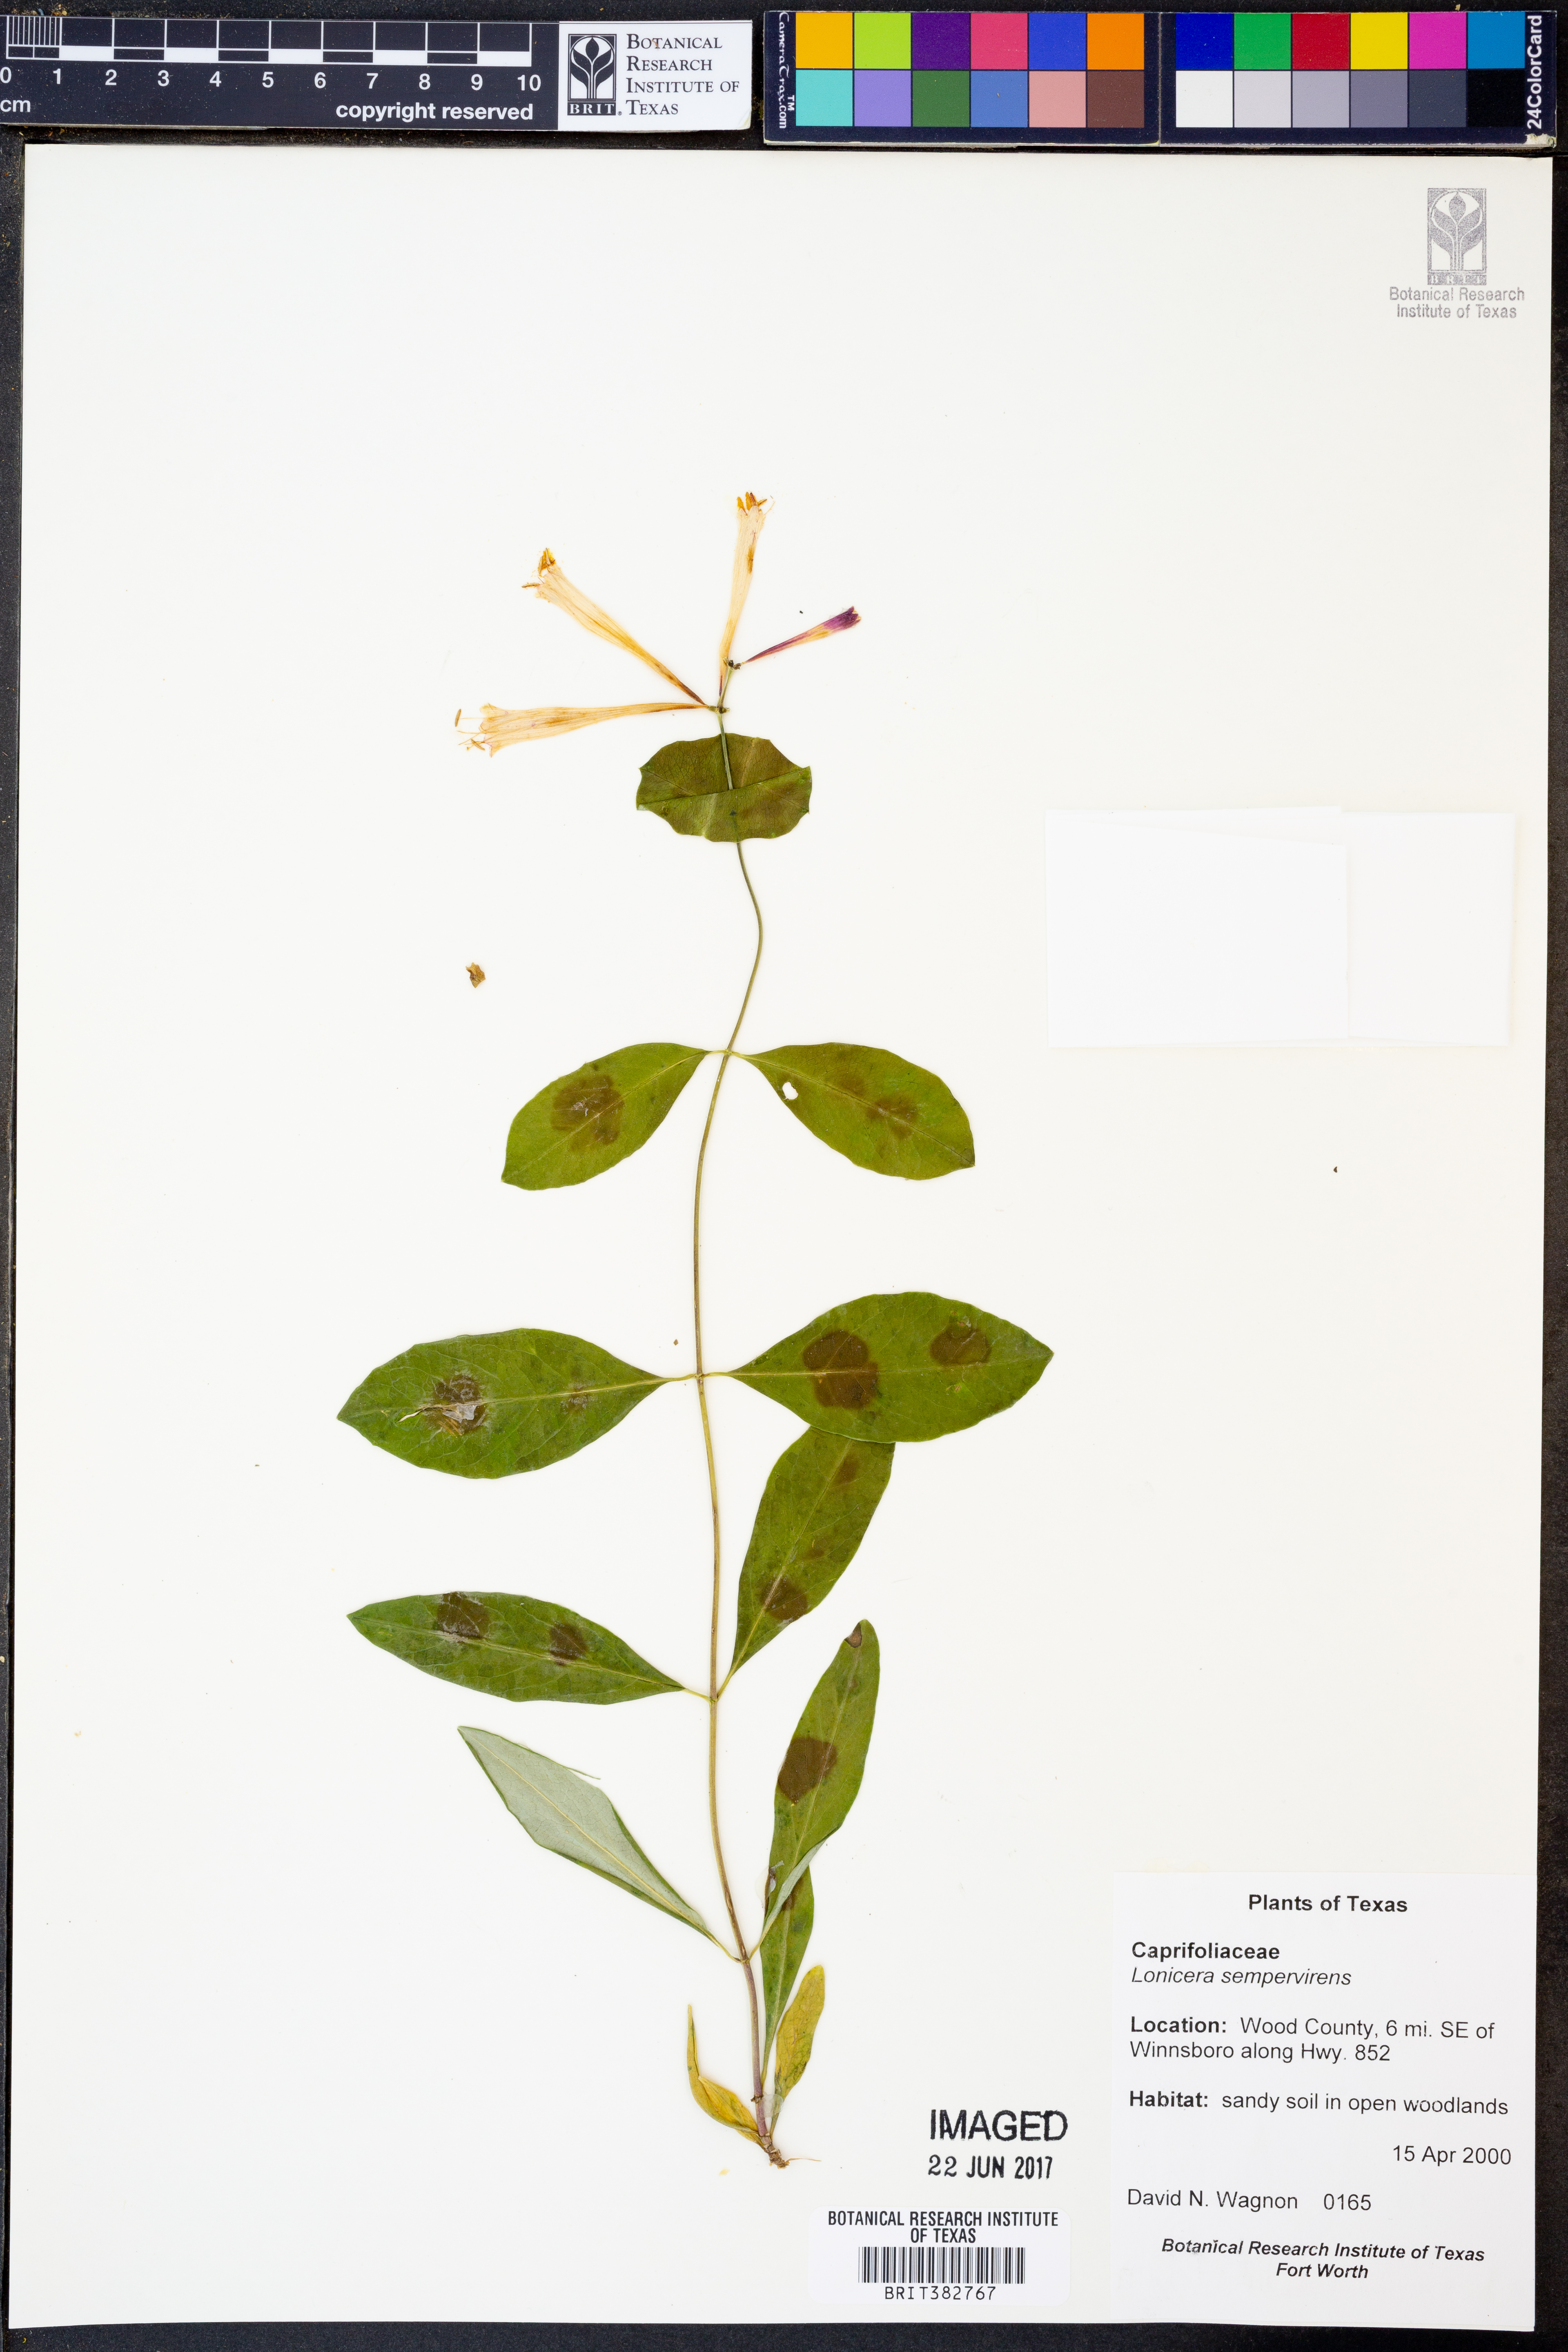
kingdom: Plantae
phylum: Tracheophyta
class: Magnoliopsida
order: Dipsacales
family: Caprifoliaceae
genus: Lonicera
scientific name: Lonicera sempervirens
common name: Coral honeysuckle
